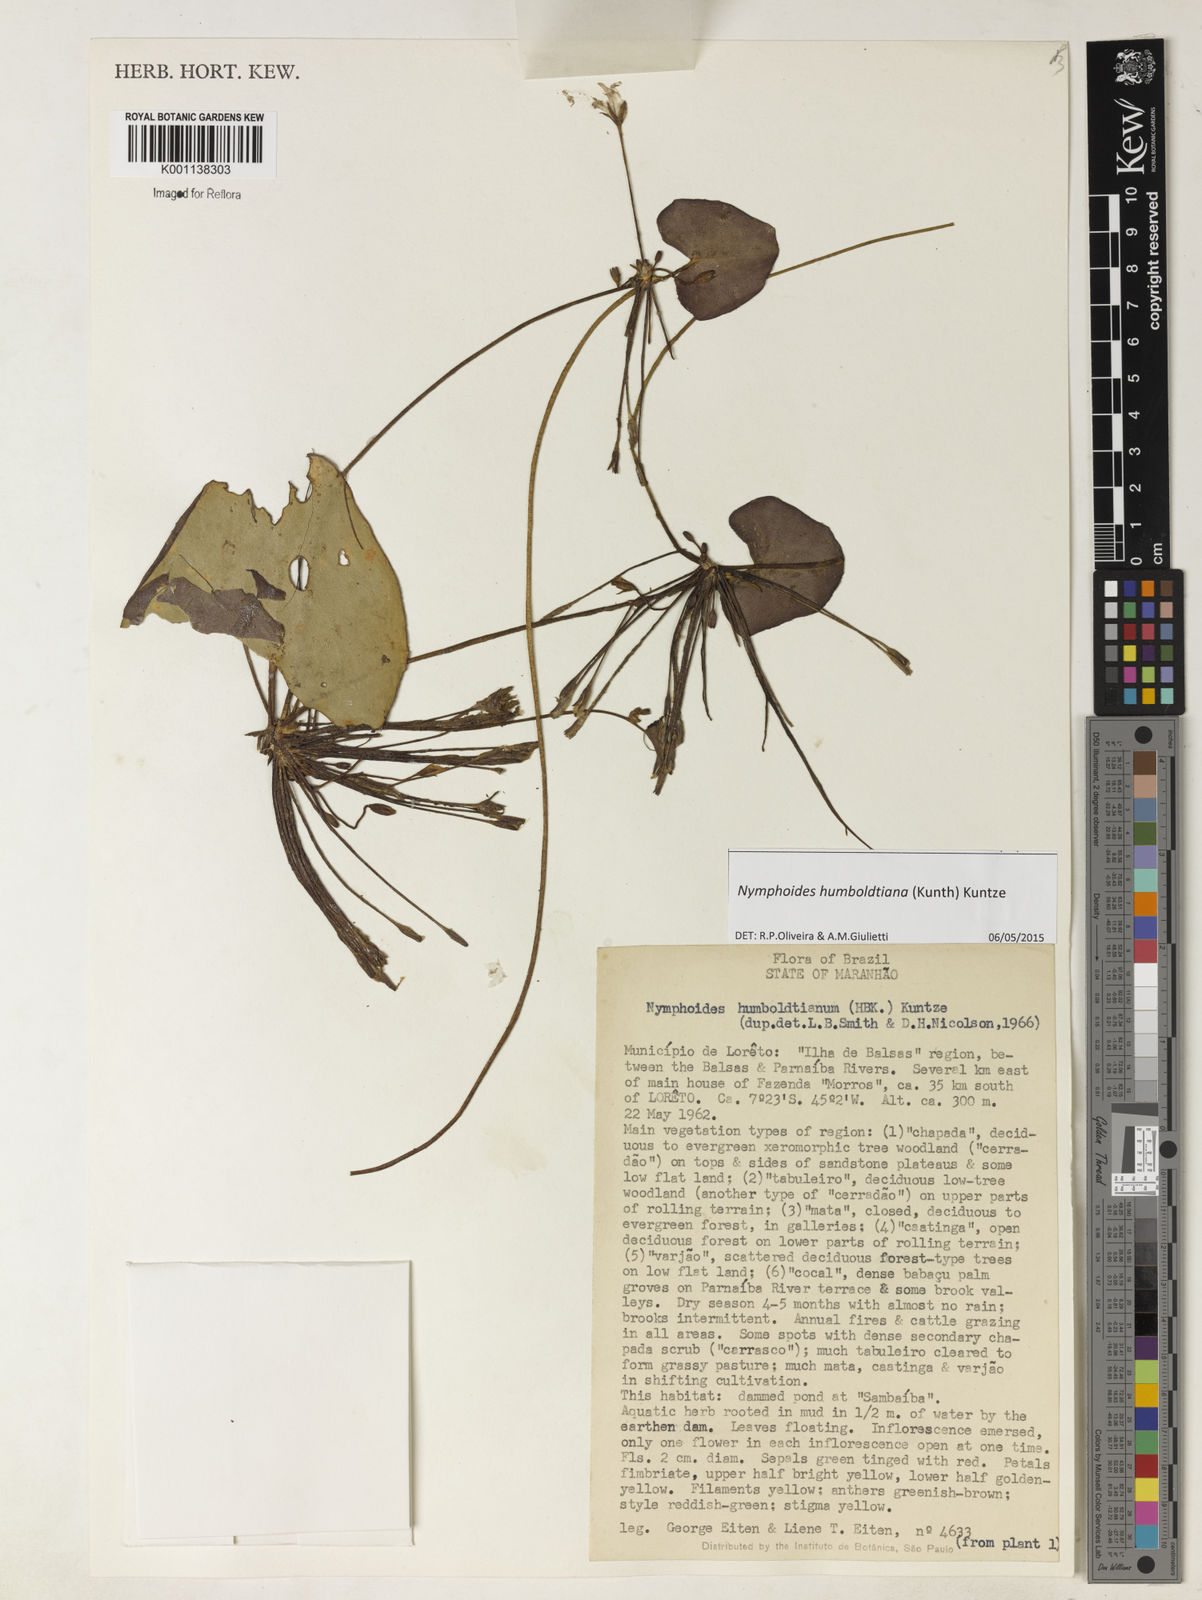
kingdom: Plantae
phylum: Tracheophyta
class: Magnoliopsida
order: Asterales
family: Menyanthaceae
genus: Nymphoides
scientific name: Nymphoides indica
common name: Water-snowflake
